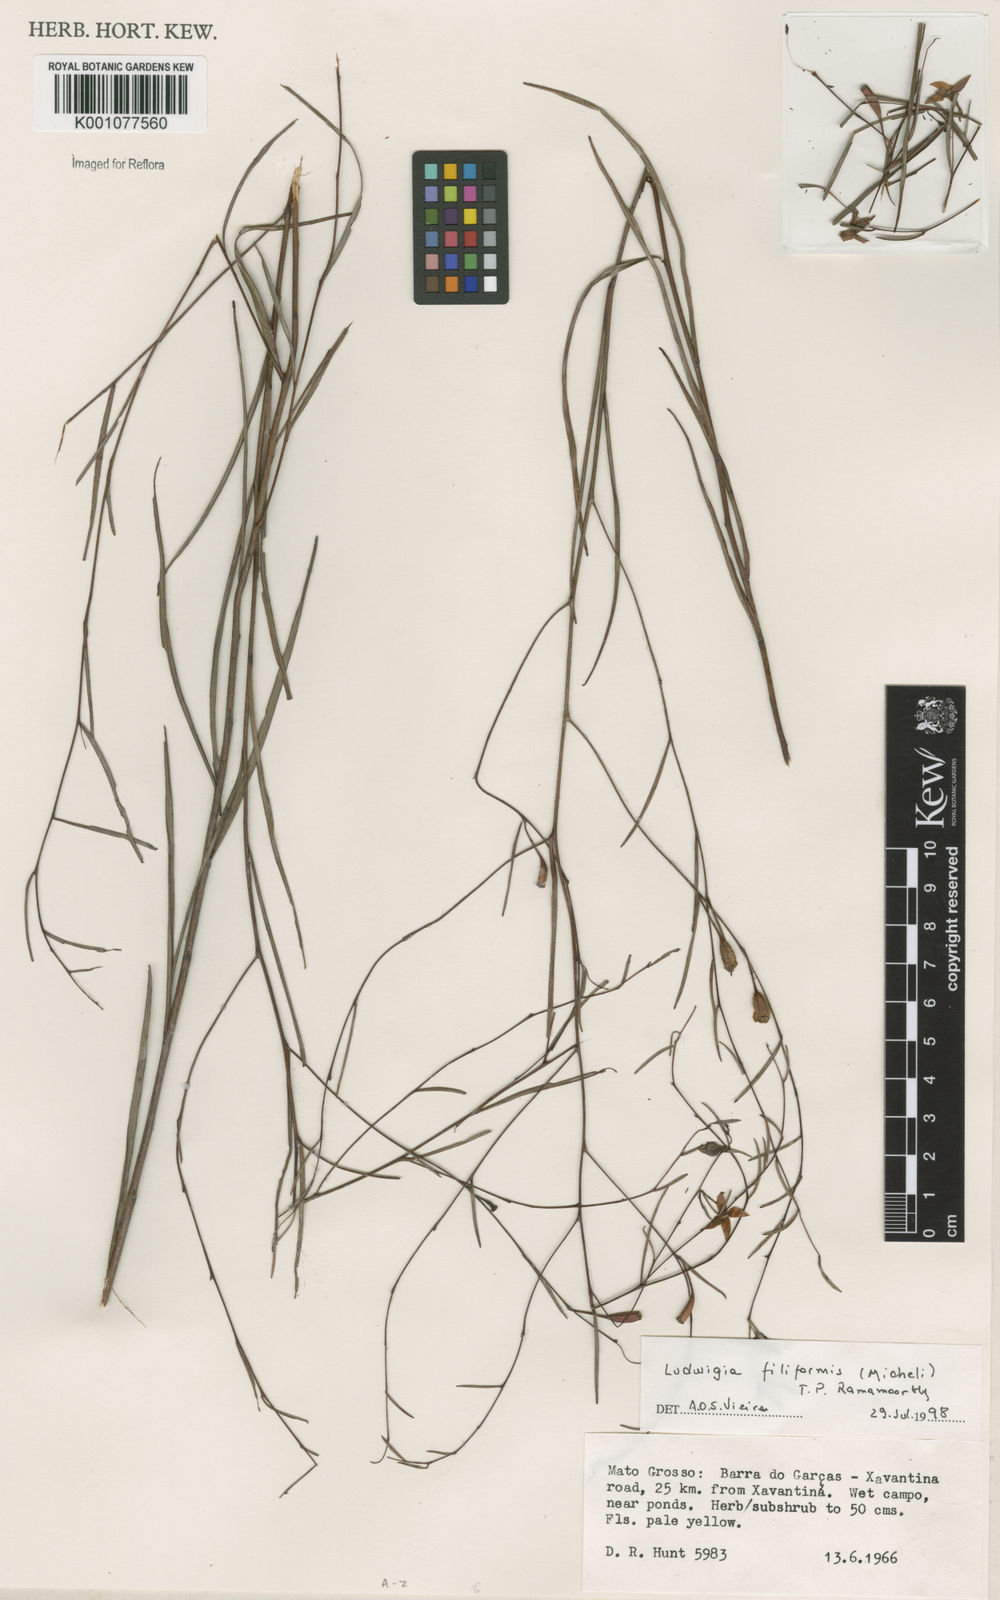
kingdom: Plantae
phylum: Tracheophyta
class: Magnoliopsida
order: Myrtales
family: Onagraceae
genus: Ludwigia
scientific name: Ludwigia filiformis
